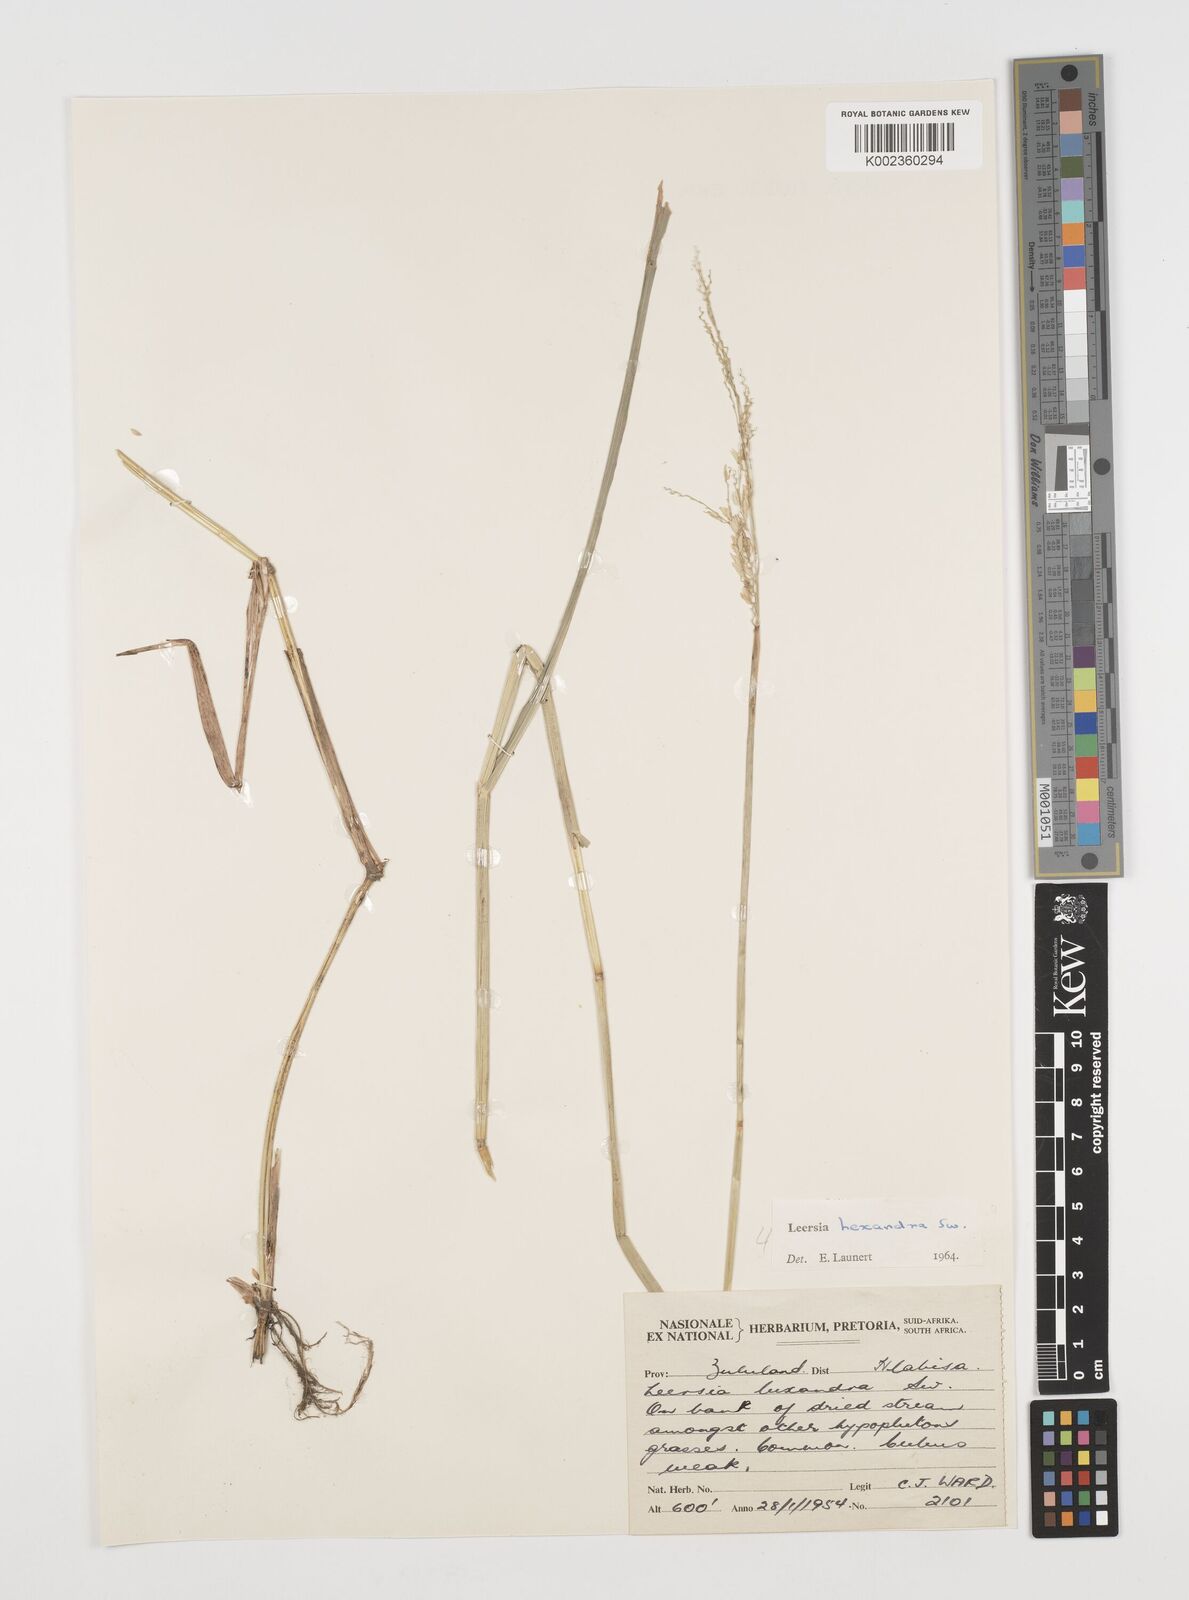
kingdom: Plantae
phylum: Tracheophyta
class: Liliopsida
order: Poales
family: Poaceae
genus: Leersia
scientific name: Leersia hexandra
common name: Southern cut grass
